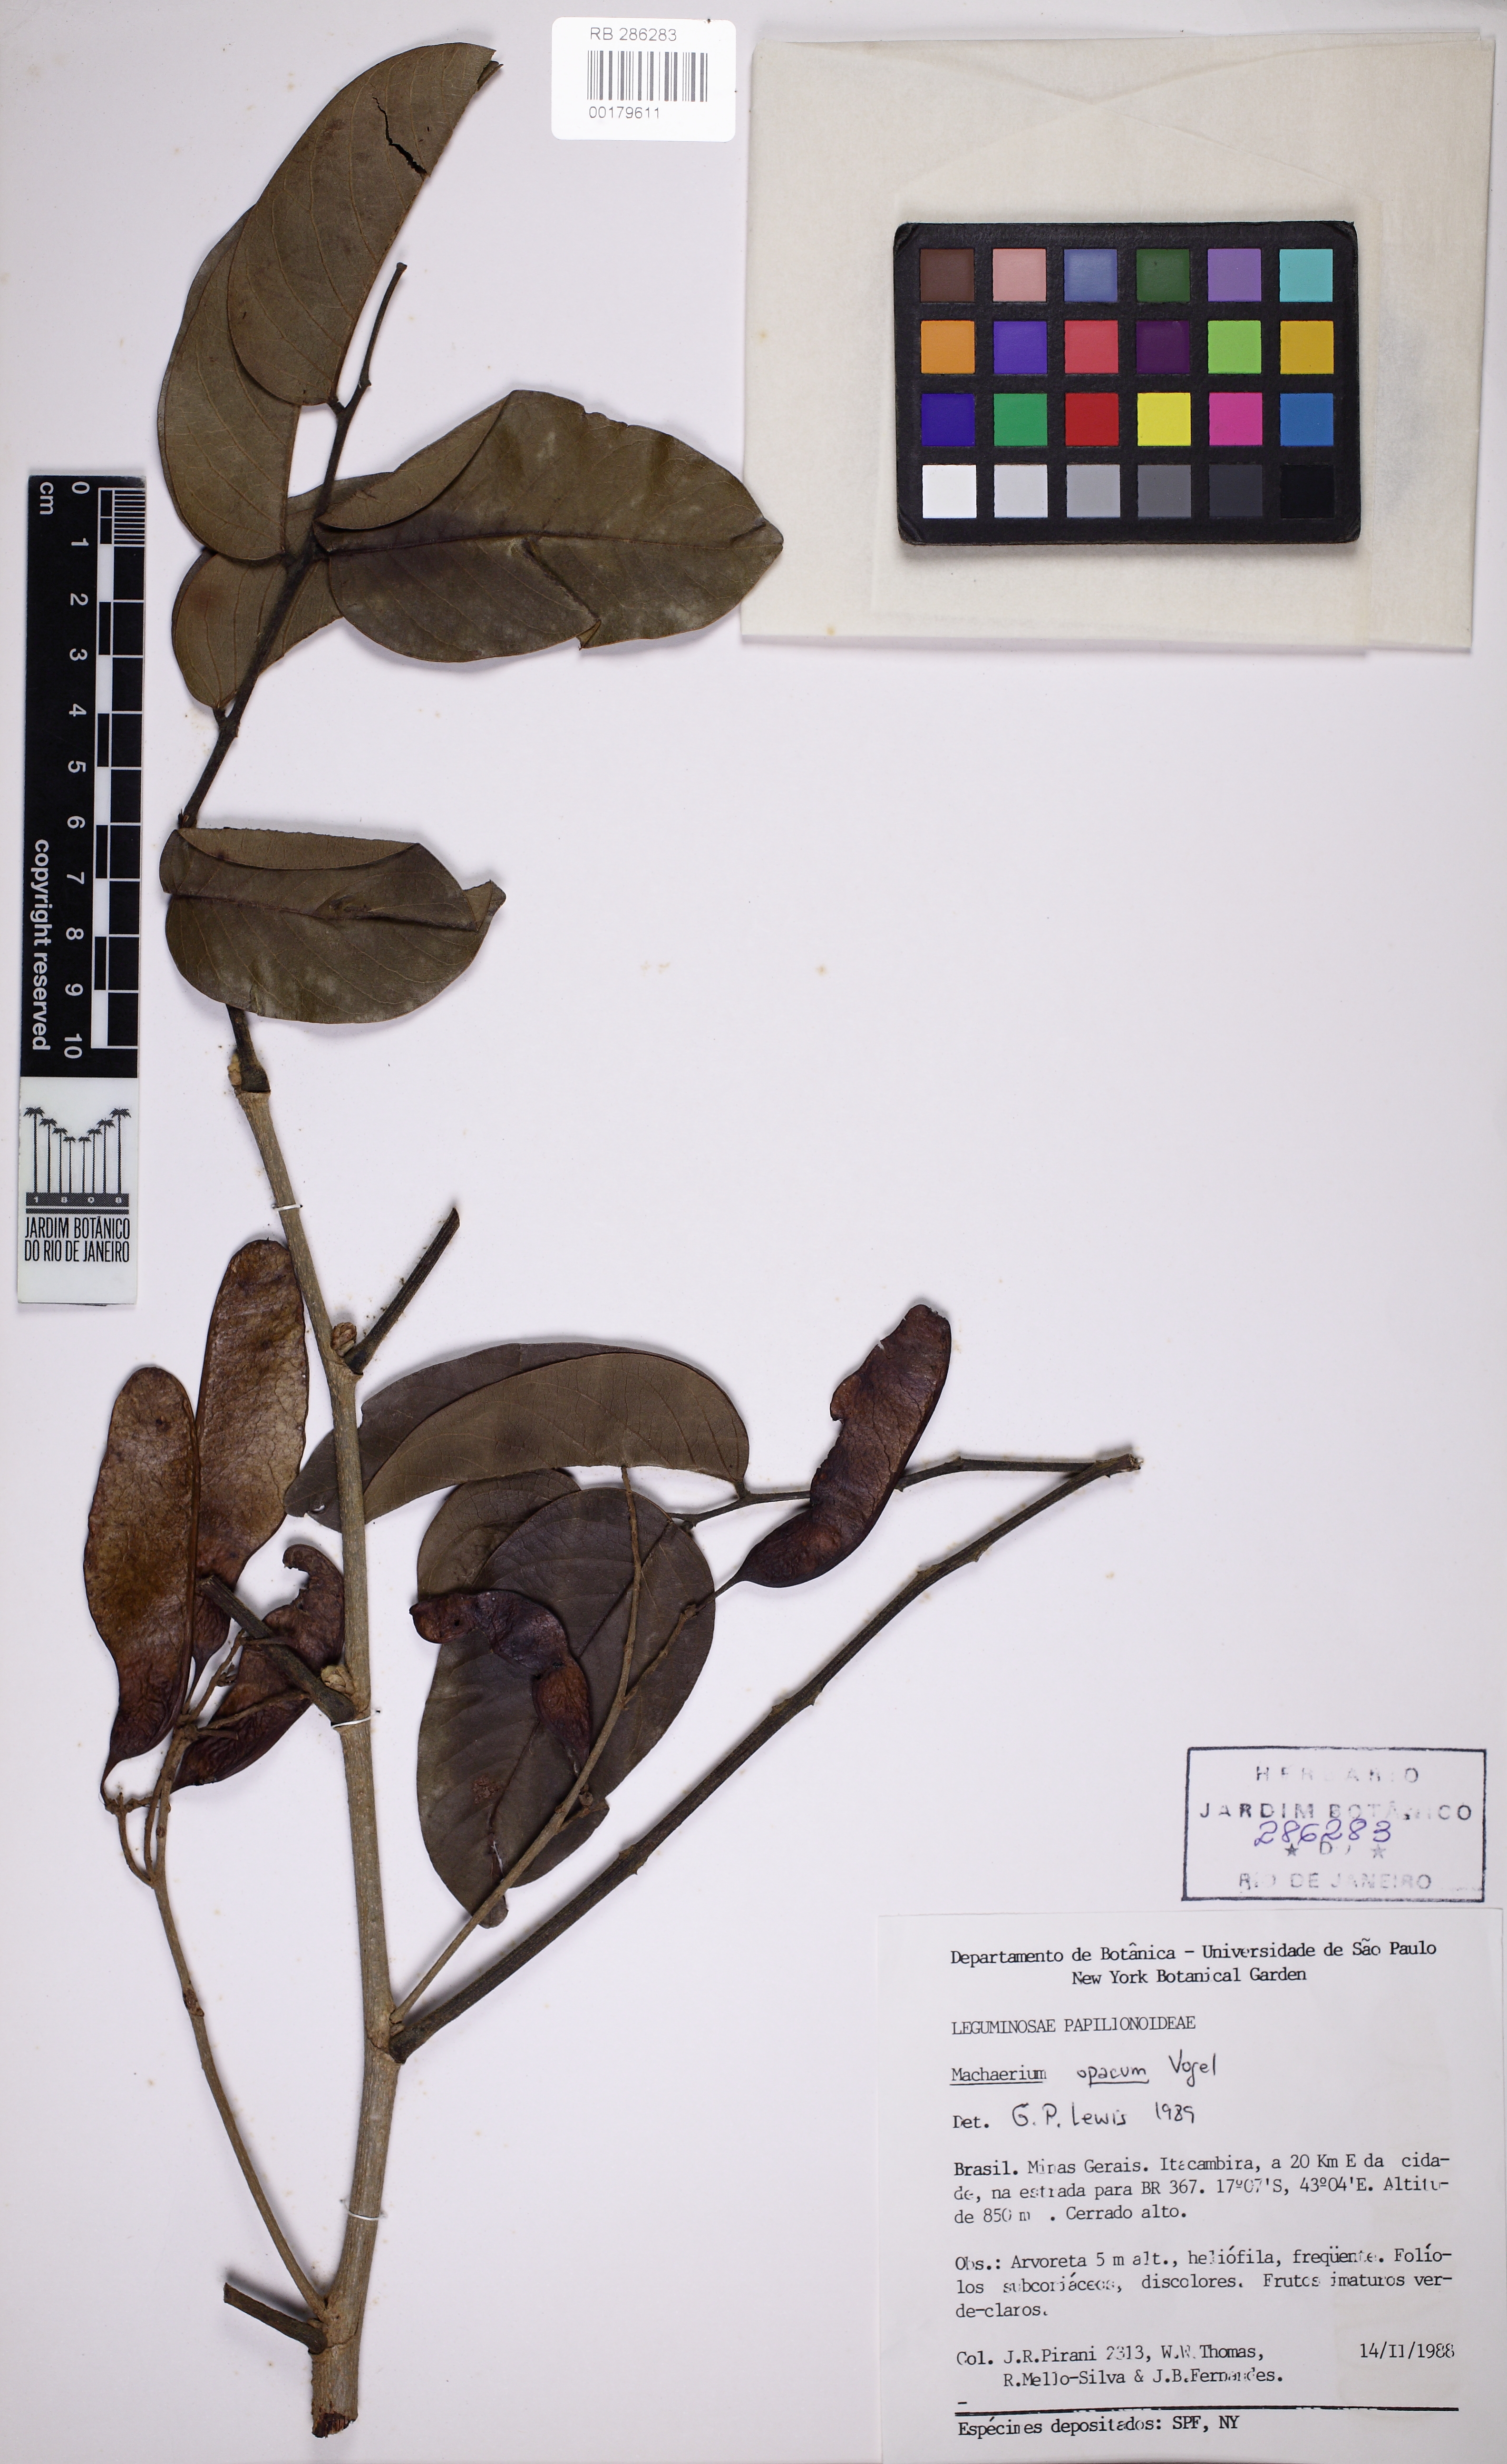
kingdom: Plantae
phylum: Tracheophyta
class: Magnoliopsida
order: Fabales
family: Fabaceae
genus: Machaerium
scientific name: Machaerium opacum
